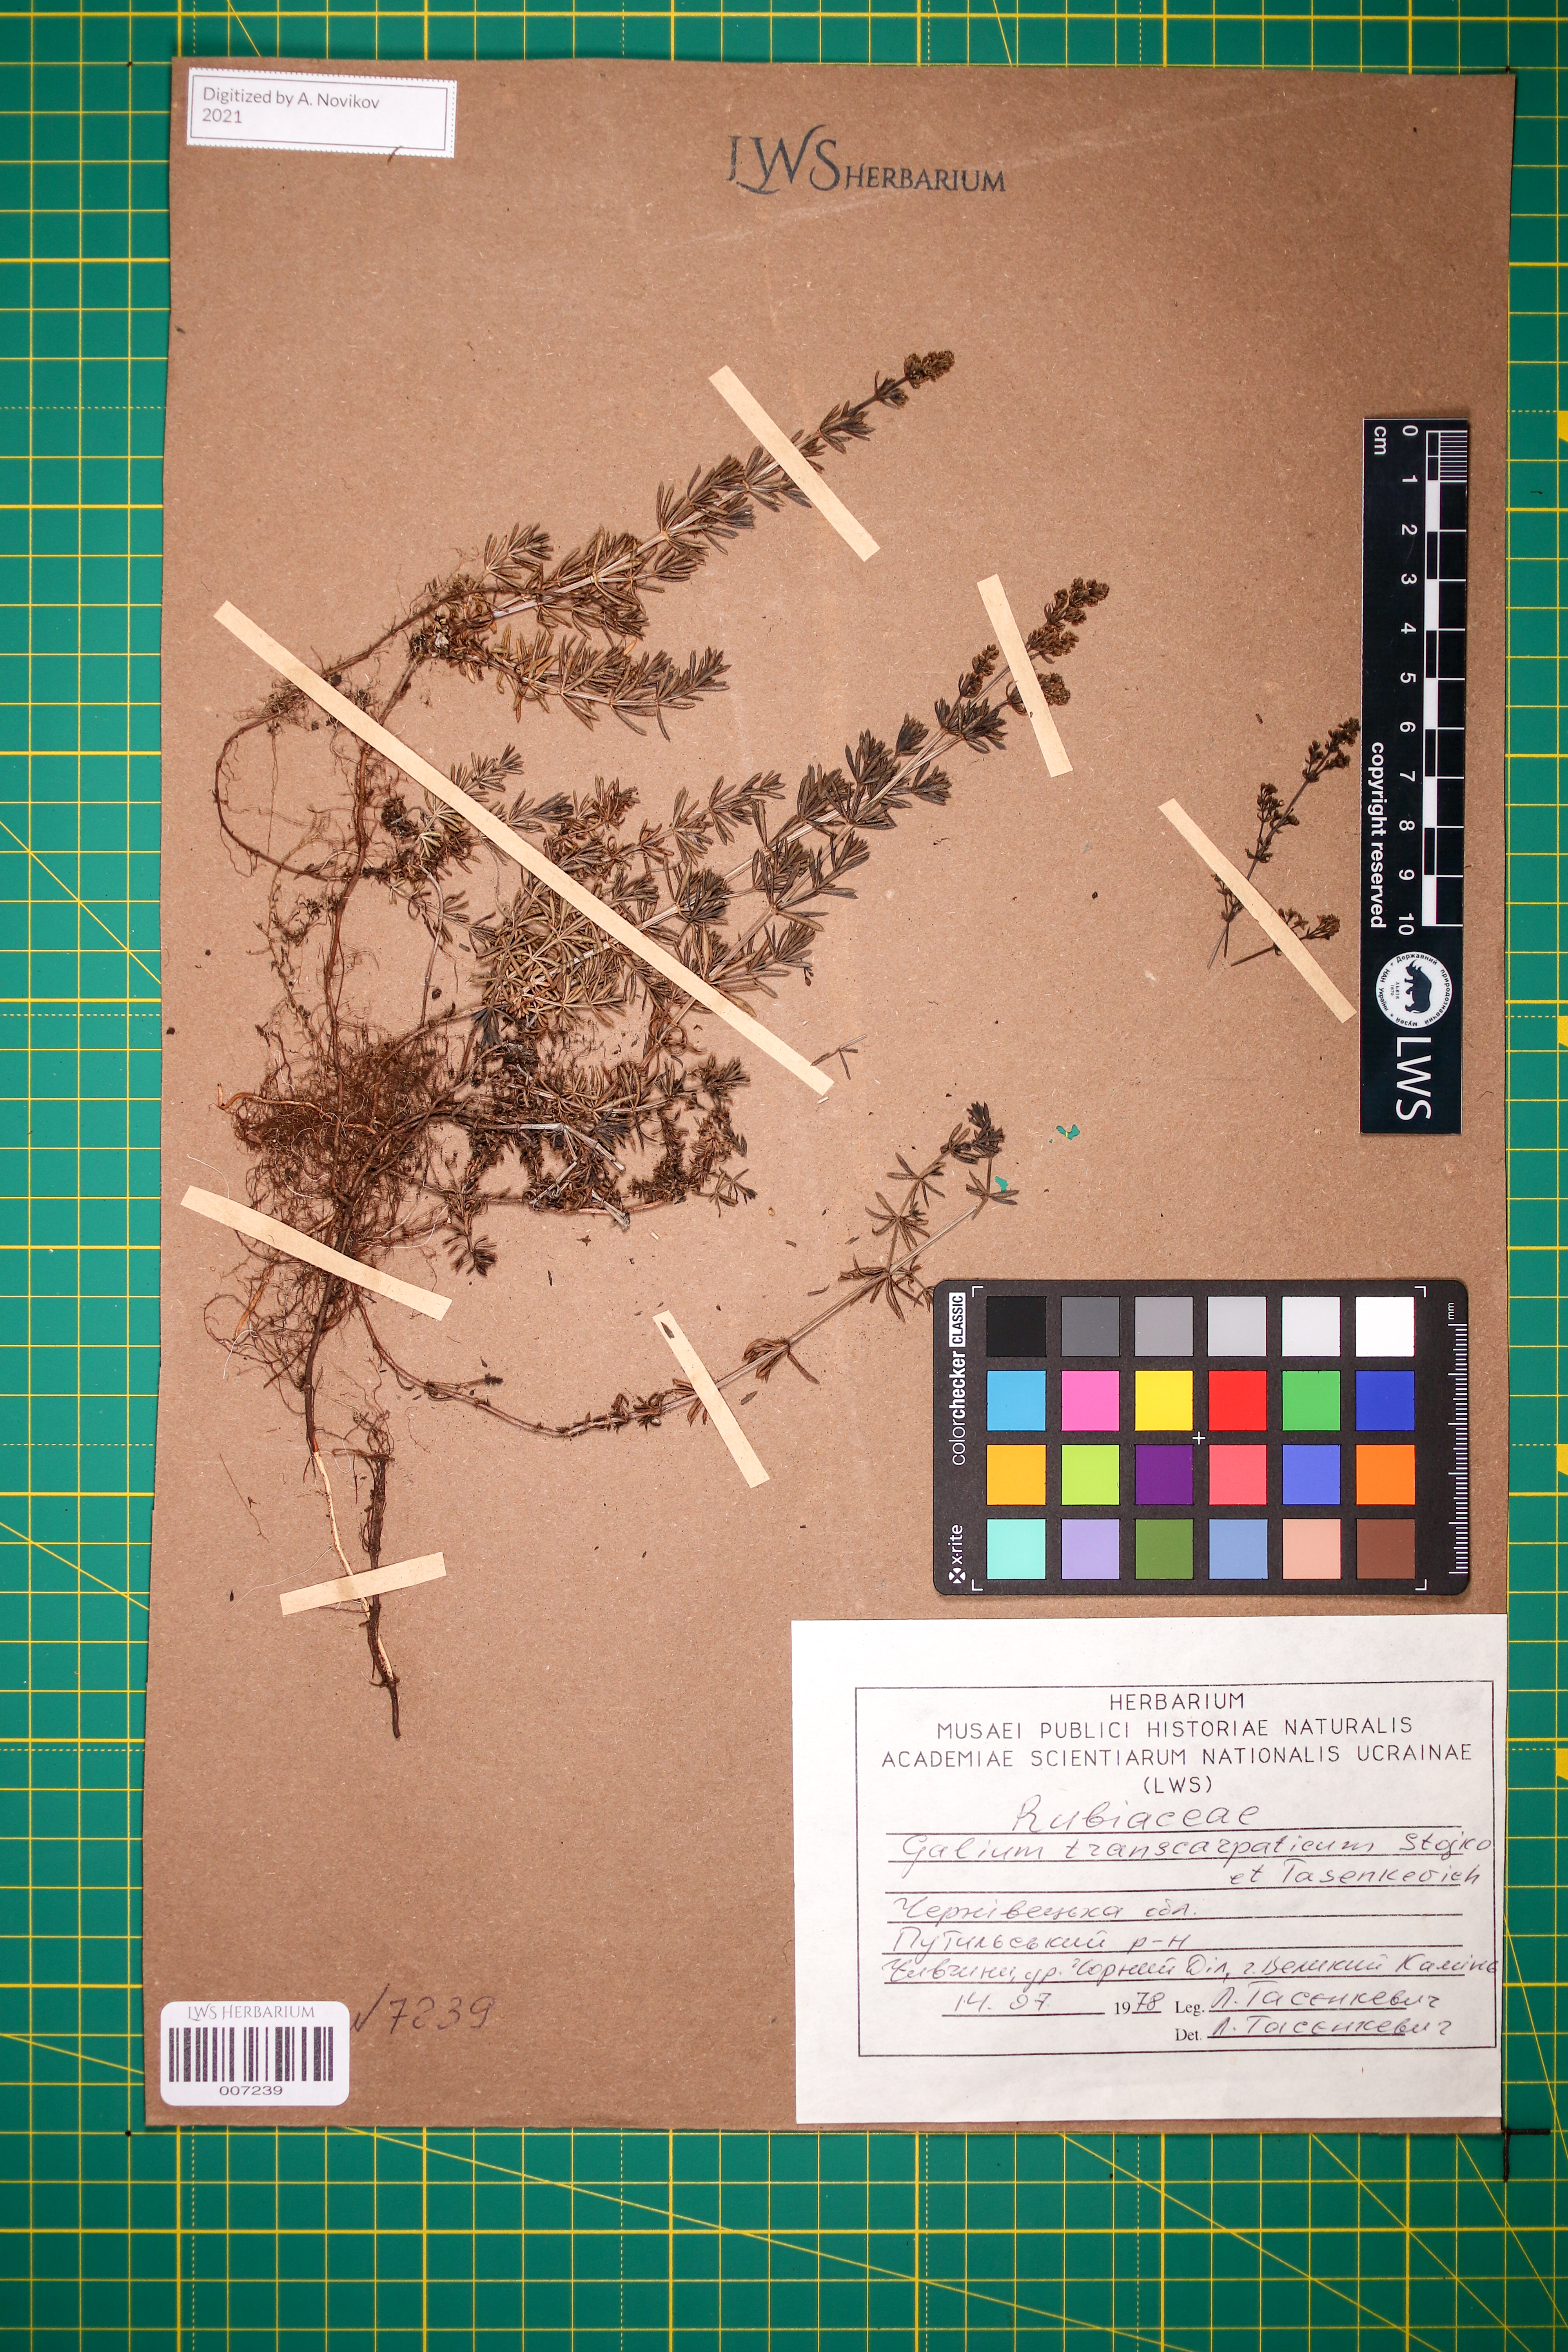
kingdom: Plantae
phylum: Tracheophyta
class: Magnoliopsida
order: Gentianales
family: Rubiaceae
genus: Galium
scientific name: Galium transcarpaticum
